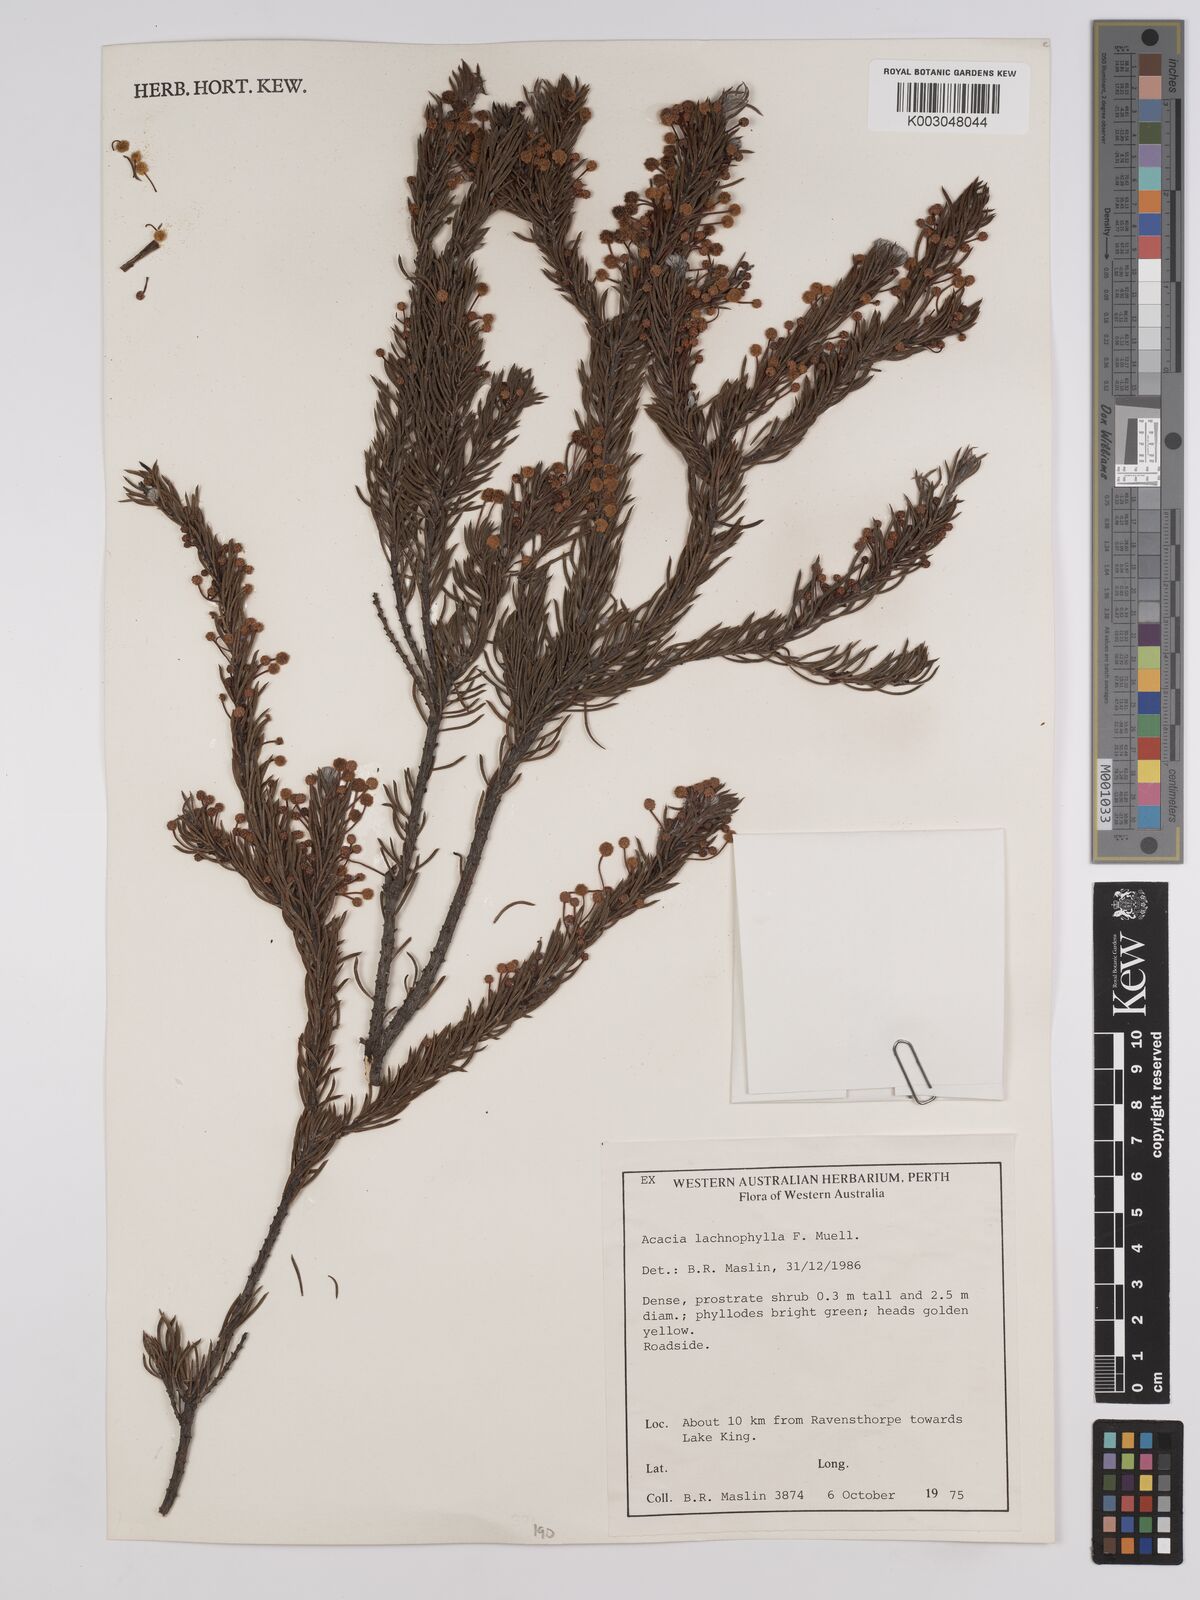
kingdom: Plantae
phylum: Tracheophyta
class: Magnoliopsida
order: Fabales
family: Fabaceae
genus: Acacia
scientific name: Acacia lachnophylla
